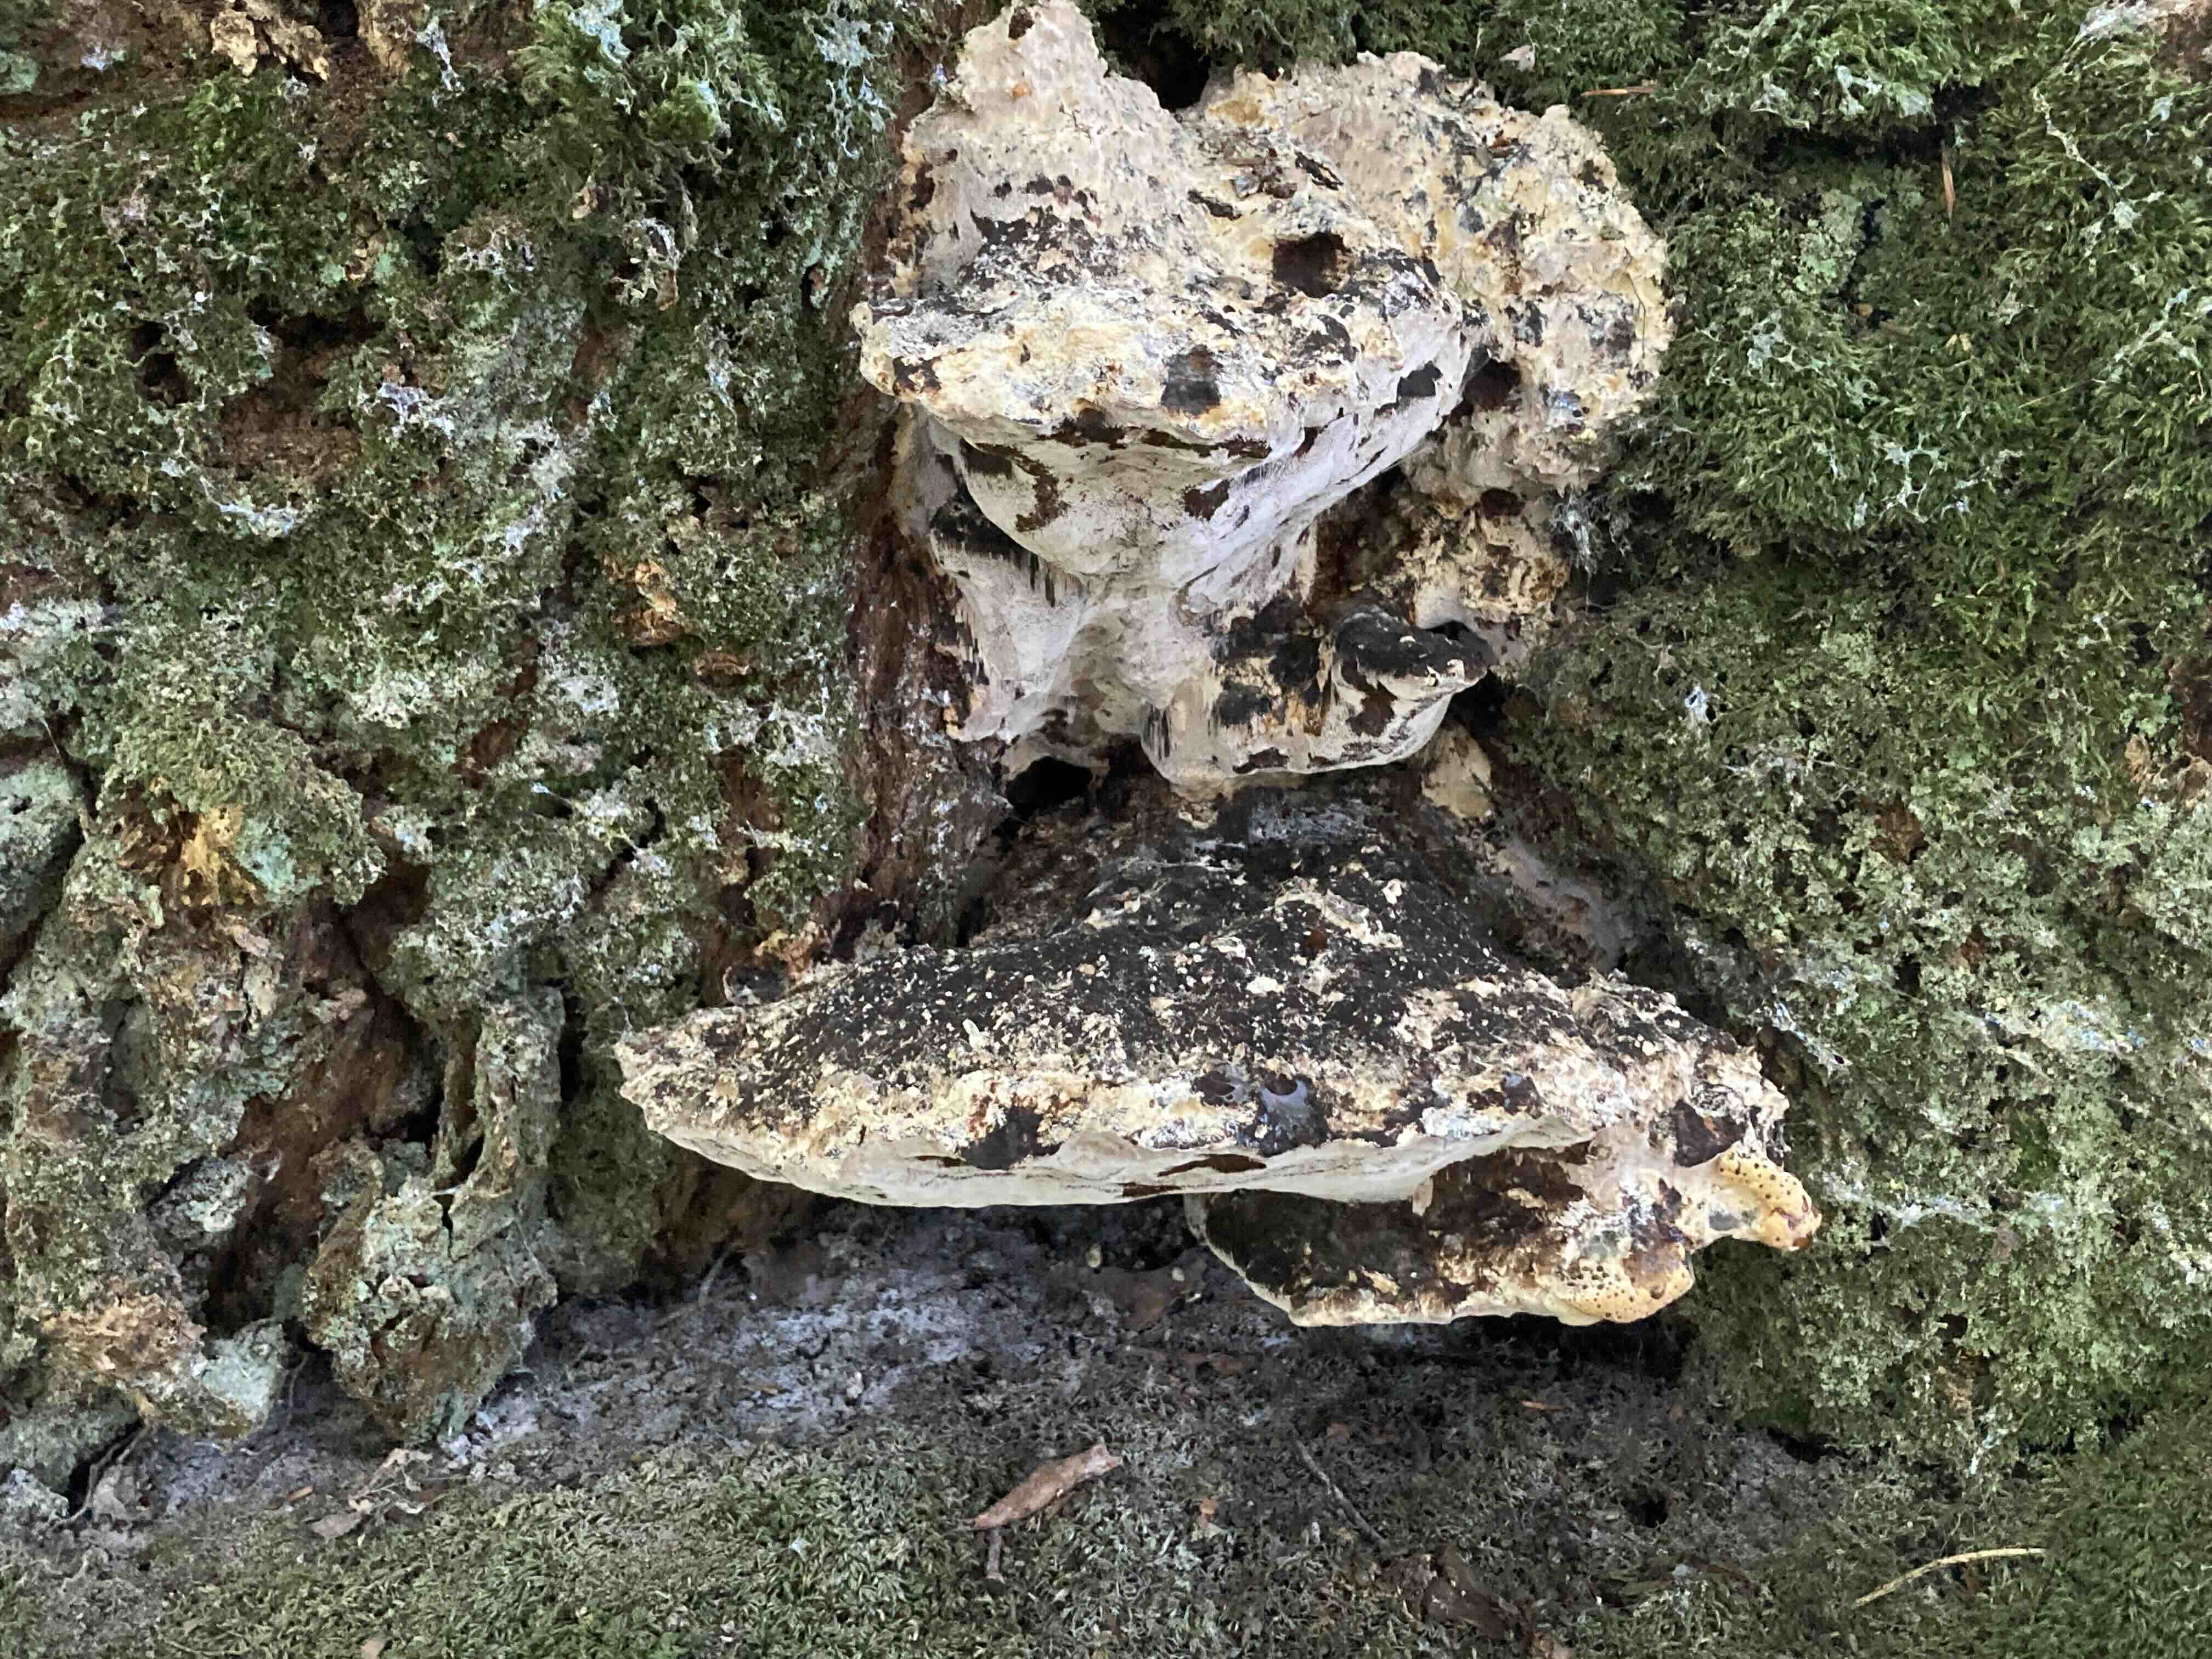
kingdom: Fungi
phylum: Basidiomycota
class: Agaricomycetes
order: Hymenochaetales
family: Hymenochaetaceae
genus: Pseudoinonotus
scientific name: Pseudoinonotus dryadeus
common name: ege-spejlporesvamp
